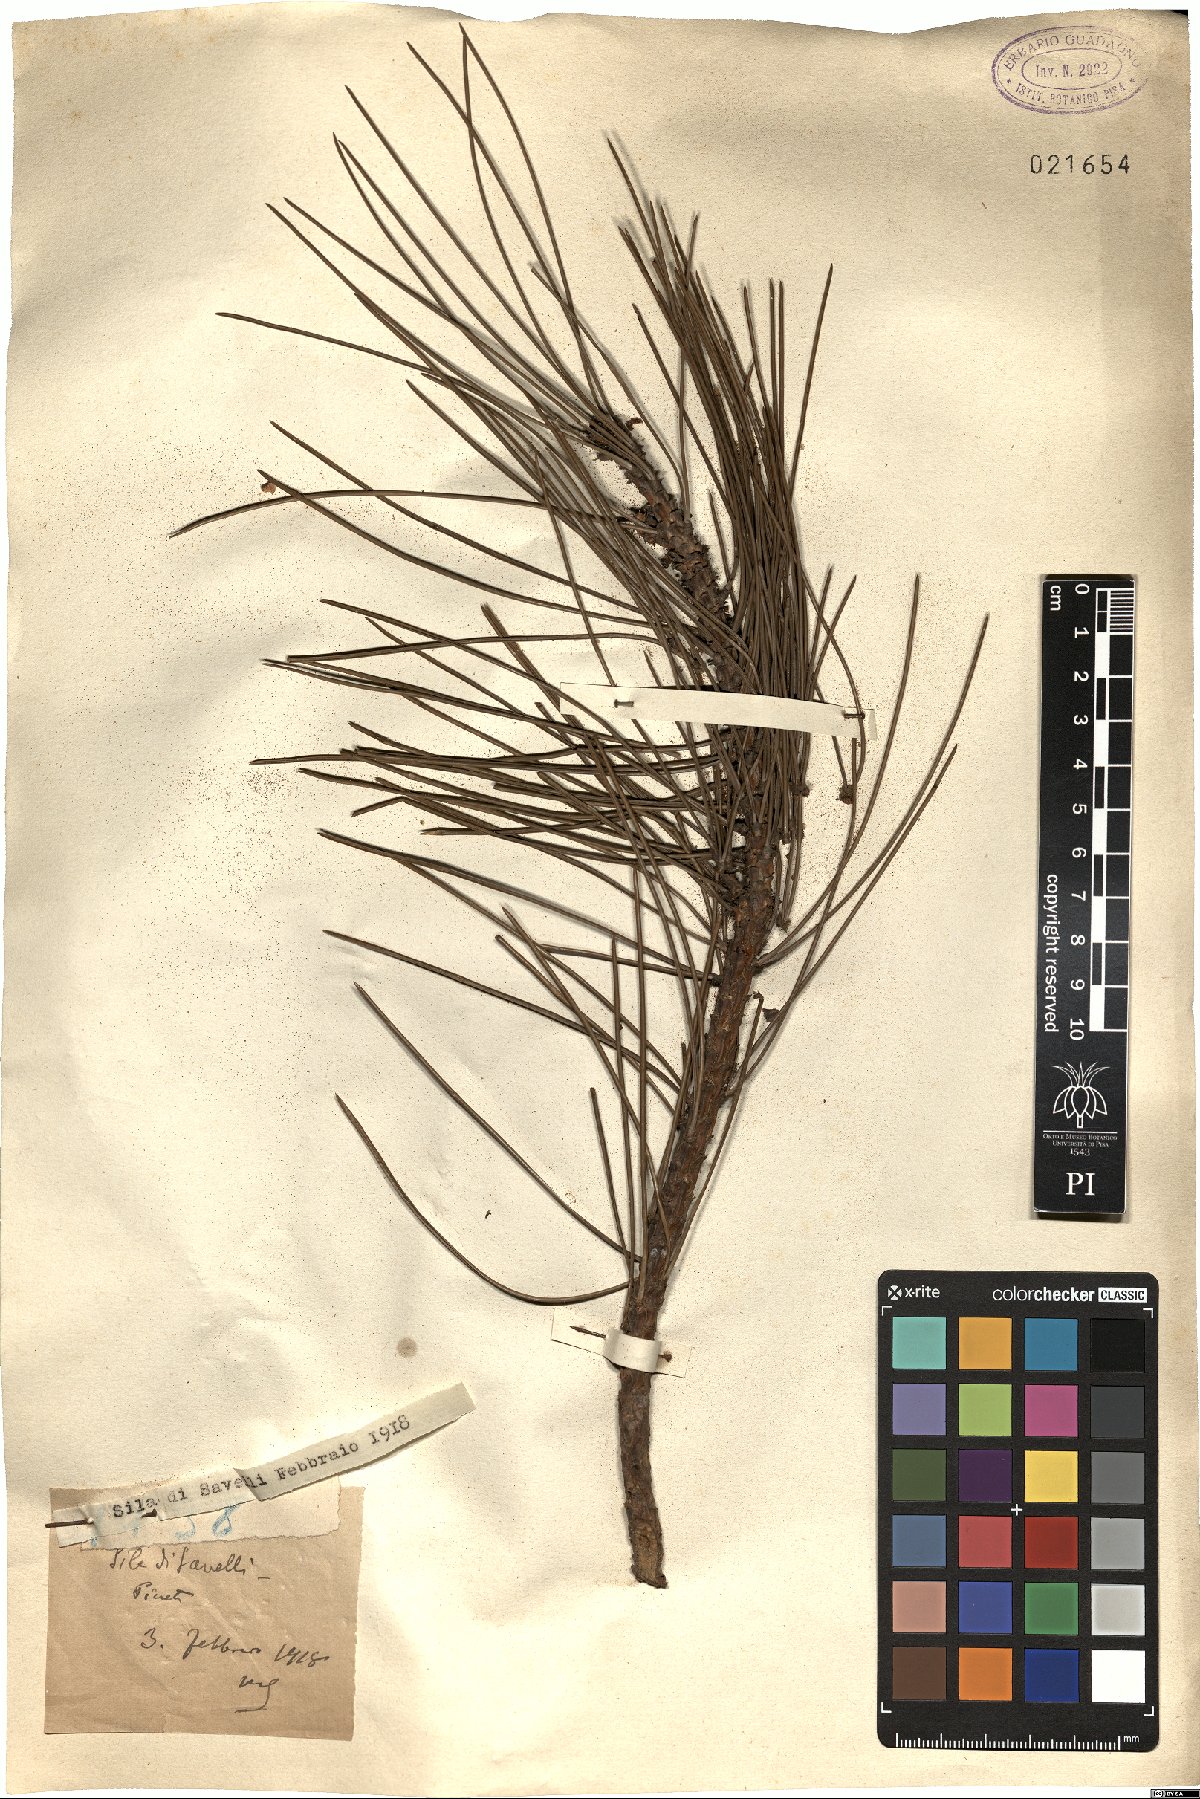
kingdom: Plantae
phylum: Tracheophyta
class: Pinopsida
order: Pinales
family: Pinaceae
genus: Pinus
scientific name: Pinus
